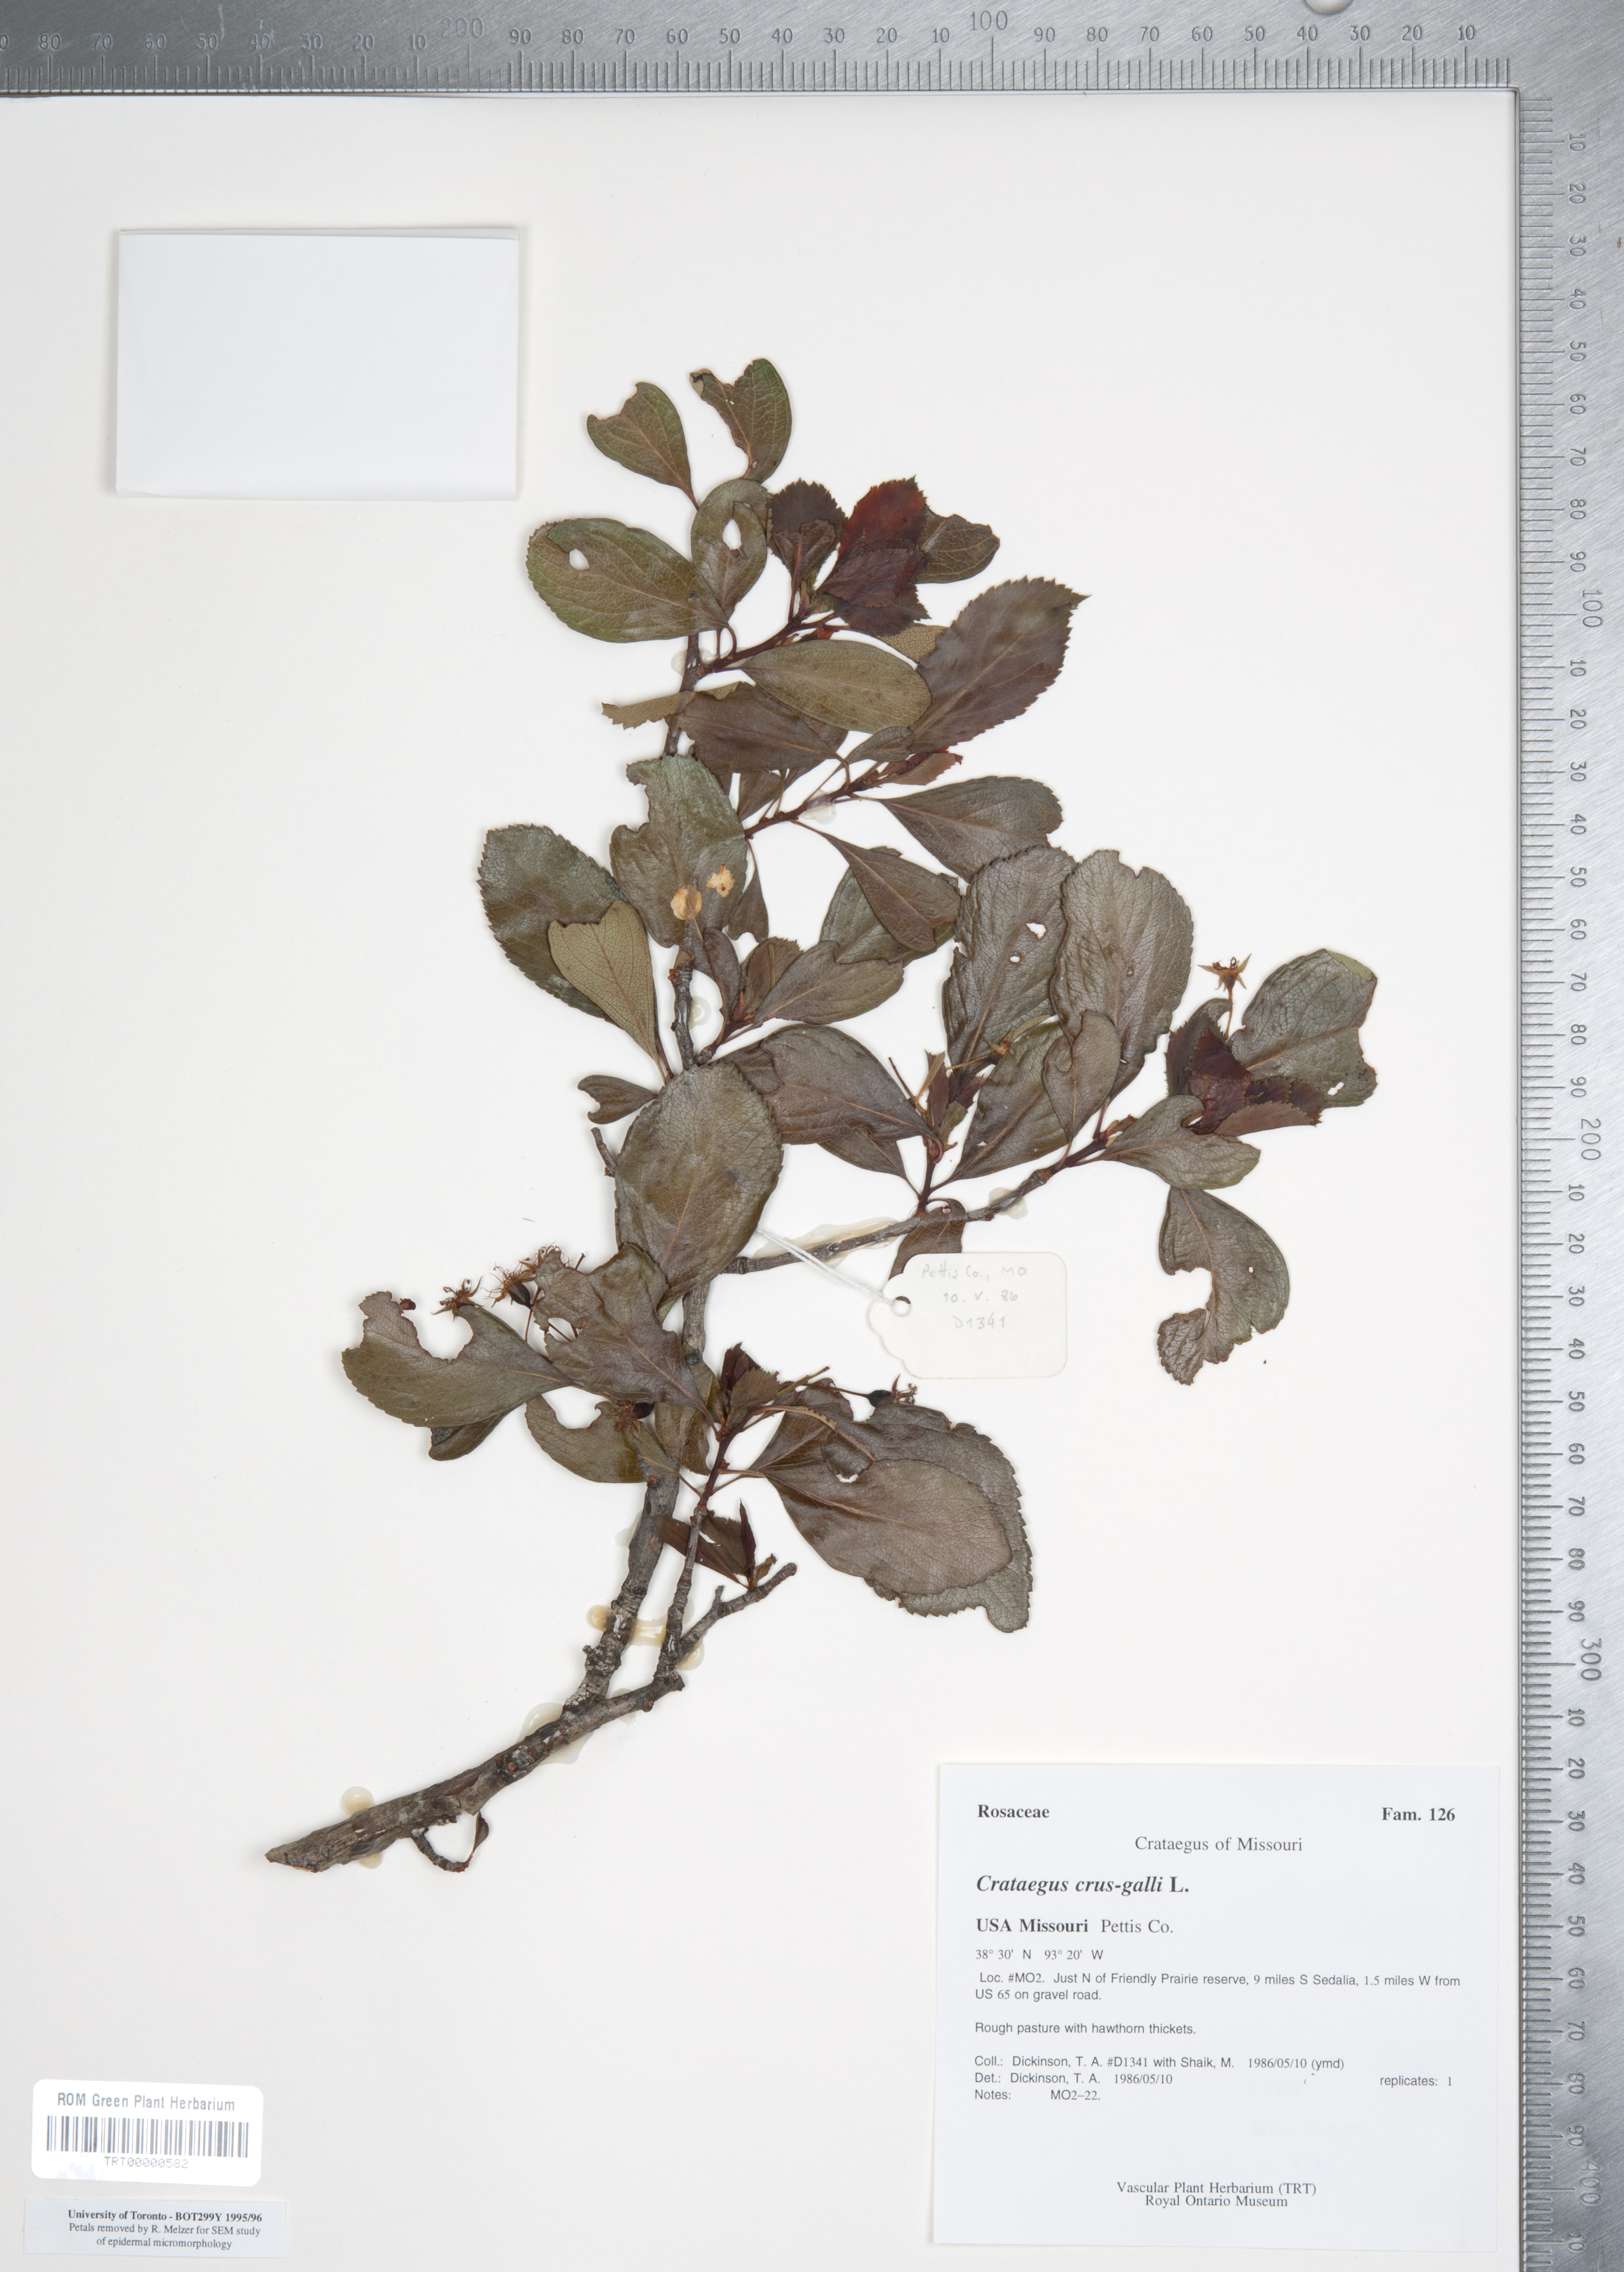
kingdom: Plantae
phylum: Tracheophyta
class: Magnoliopsida
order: Rosales
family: Rosaceae
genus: Crataegus
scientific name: Crataegus crus-galli
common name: Cockspurthorn
